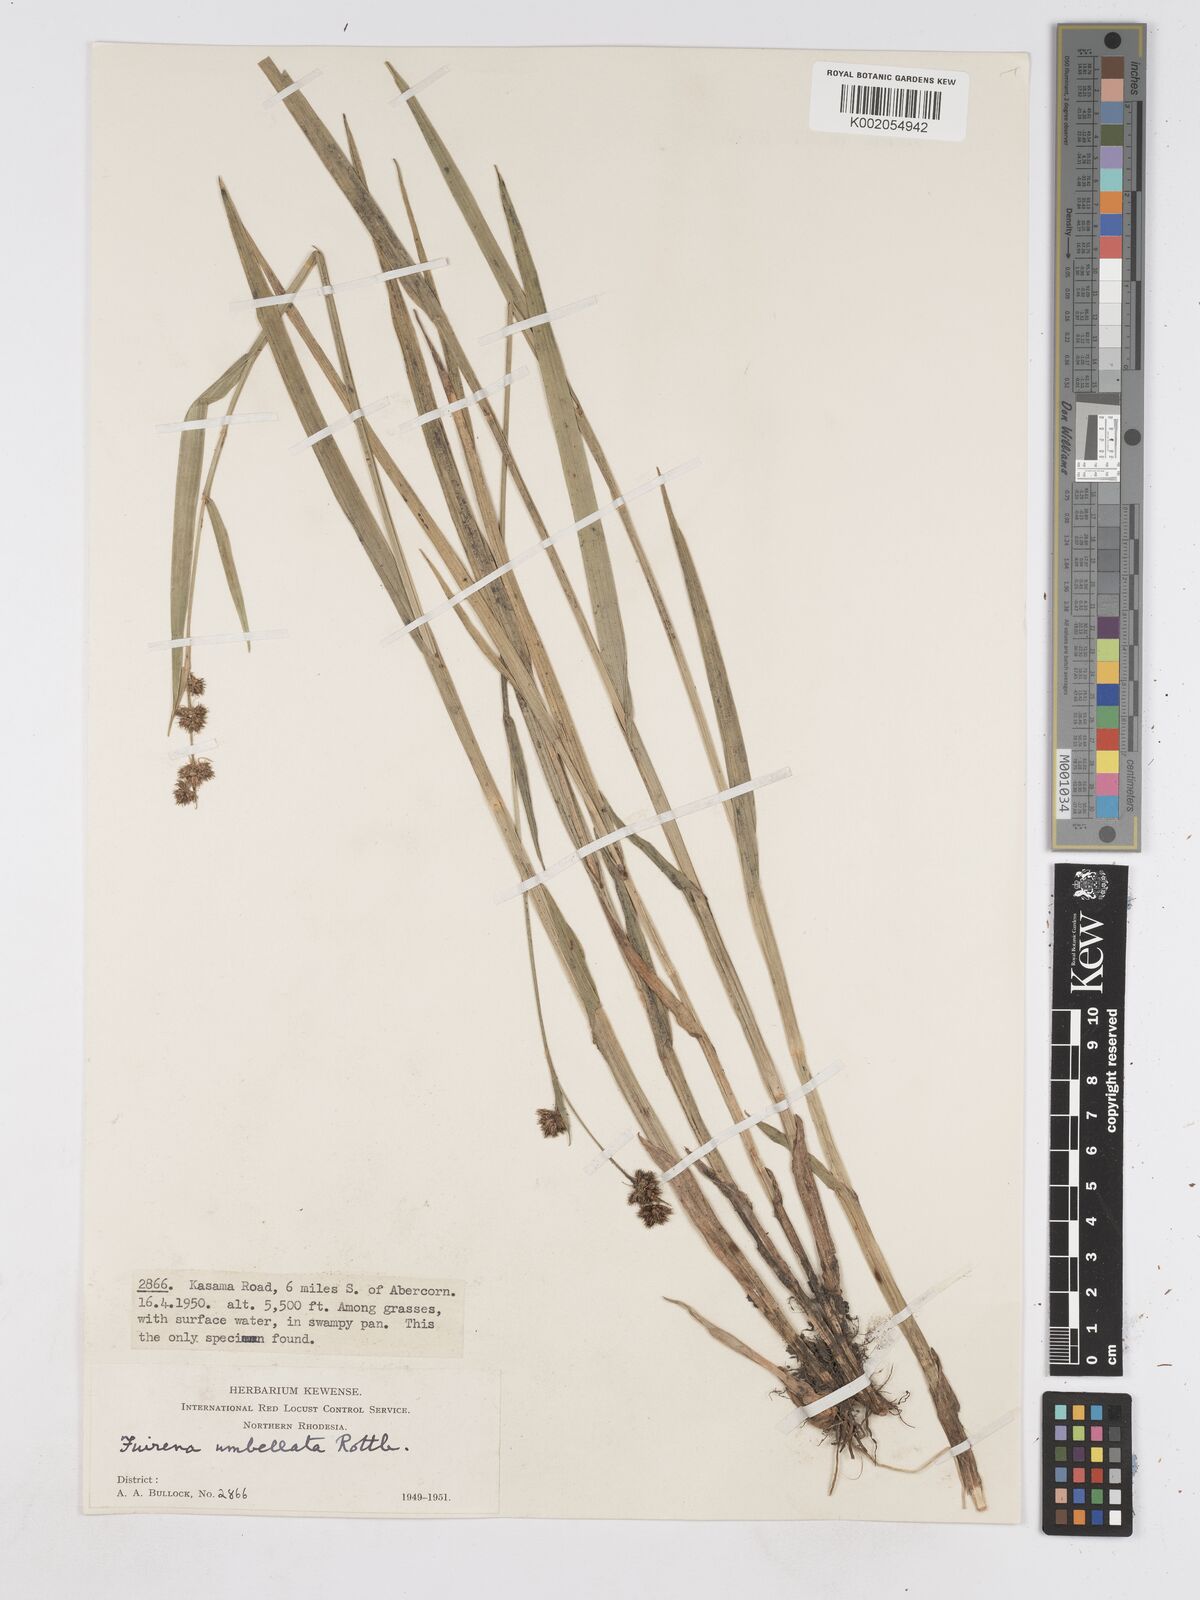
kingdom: Plantae
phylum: Tracheophyta
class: Liliopsida
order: Poales
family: Cyperaceae
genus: Fuirena
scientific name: Fuirena umbellata
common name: Yefen
